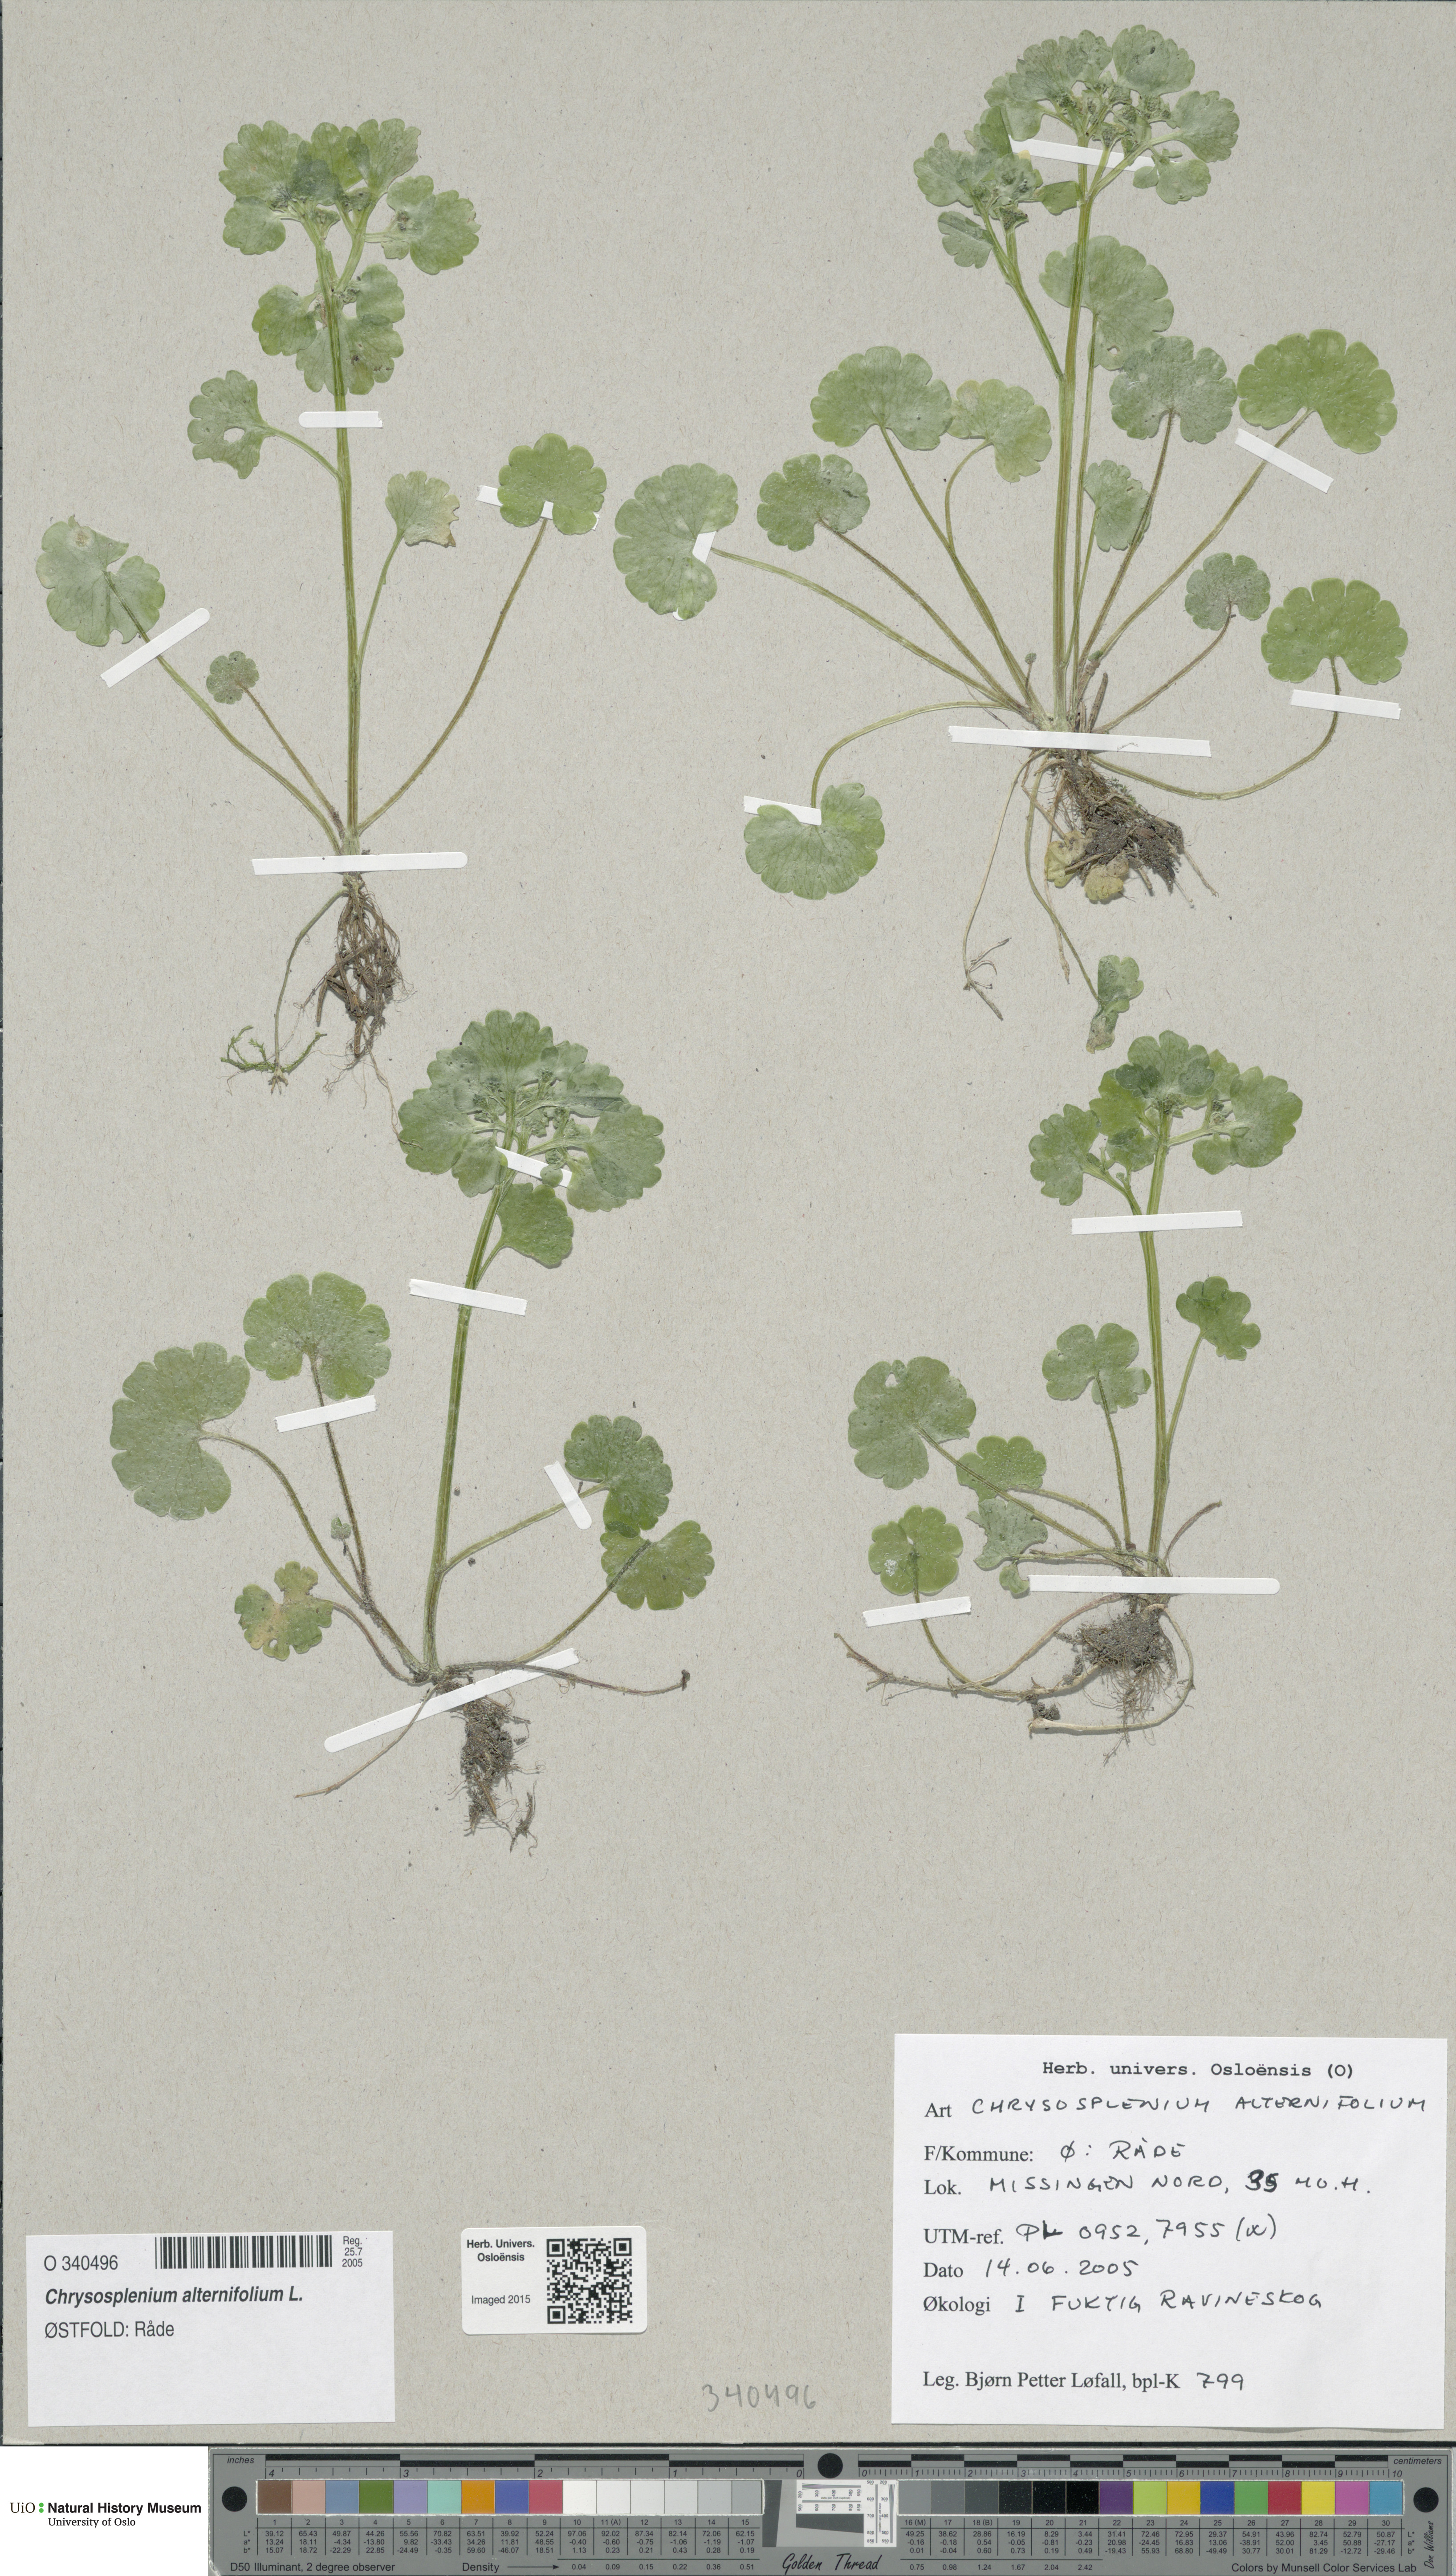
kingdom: Plantae
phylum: Tracheophyta
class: Magnoliopsida
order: Saxifragales
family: Saxifragaceae
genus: Chrysosplenium
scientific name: Chrysosplenium alternifolium
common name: Alternate-leaved golden-saxifrage
